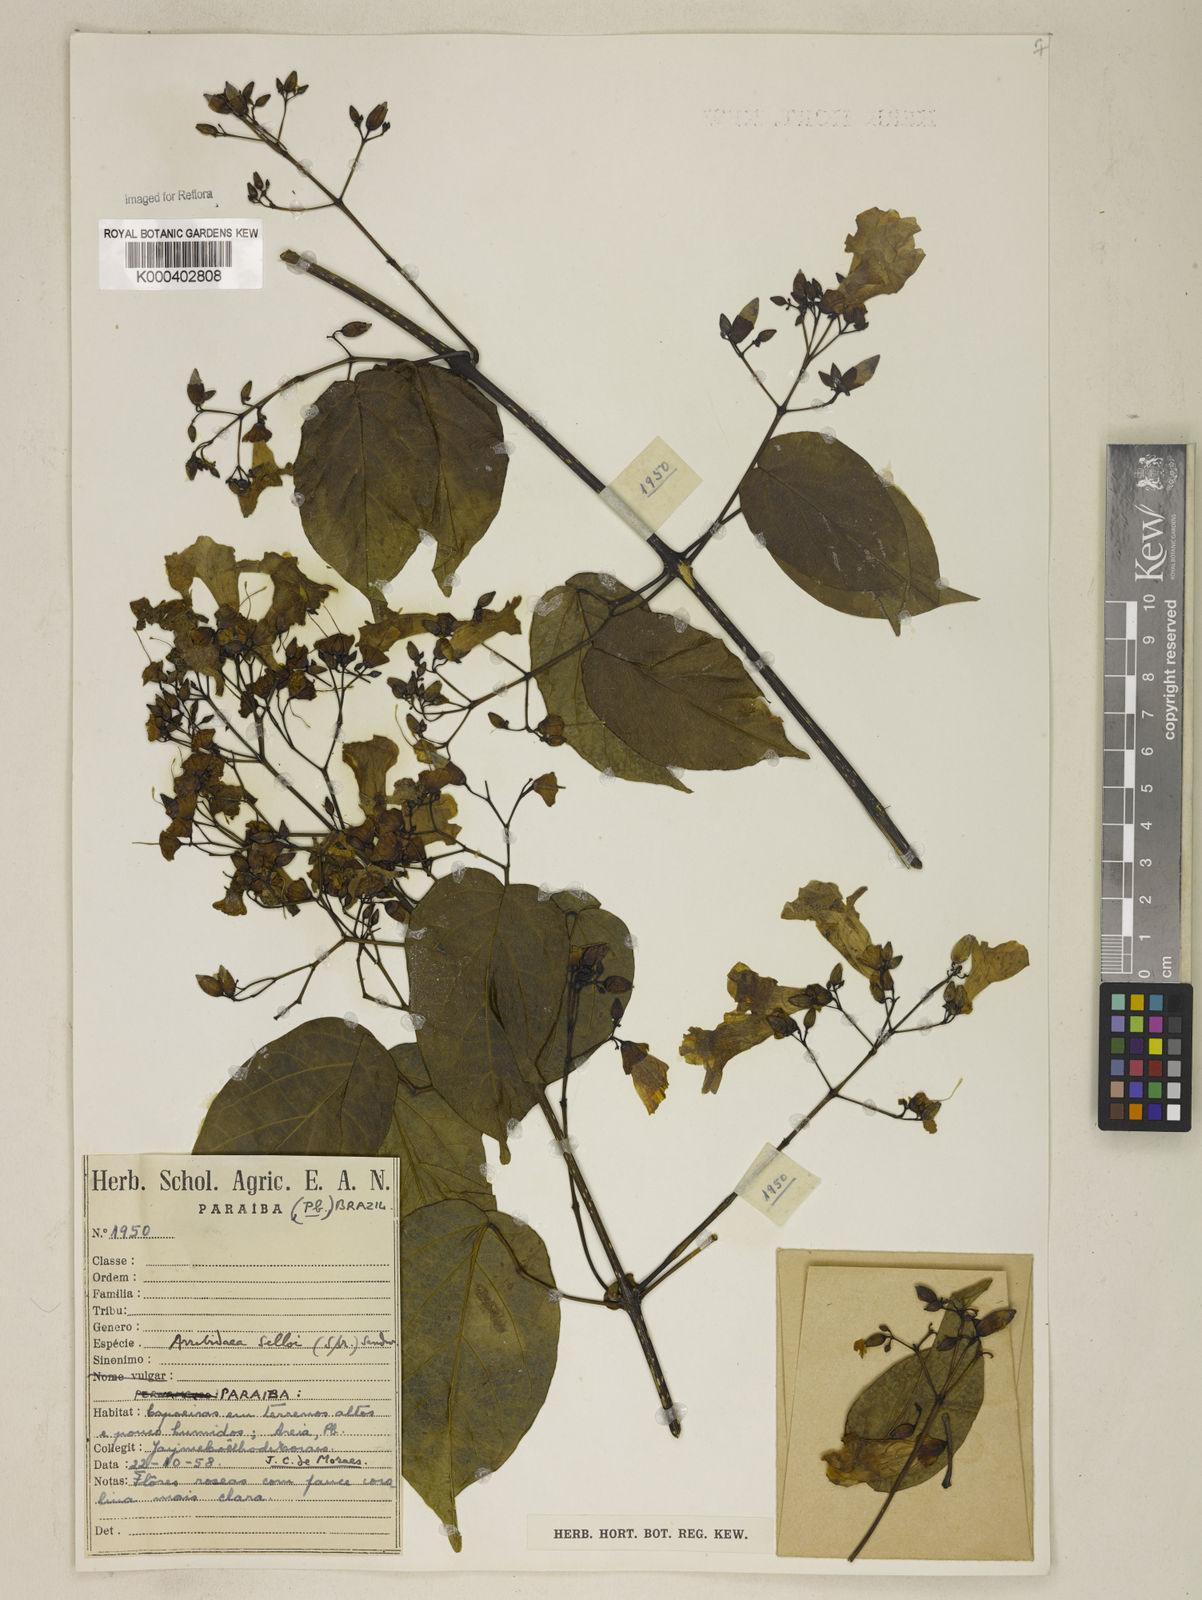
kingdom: Plantae
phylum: Tracheophyta
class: Magnoliopsida
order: Lamiales
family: Bignoniaceae
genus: Tanaecium
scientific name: Tanaecium selloi
